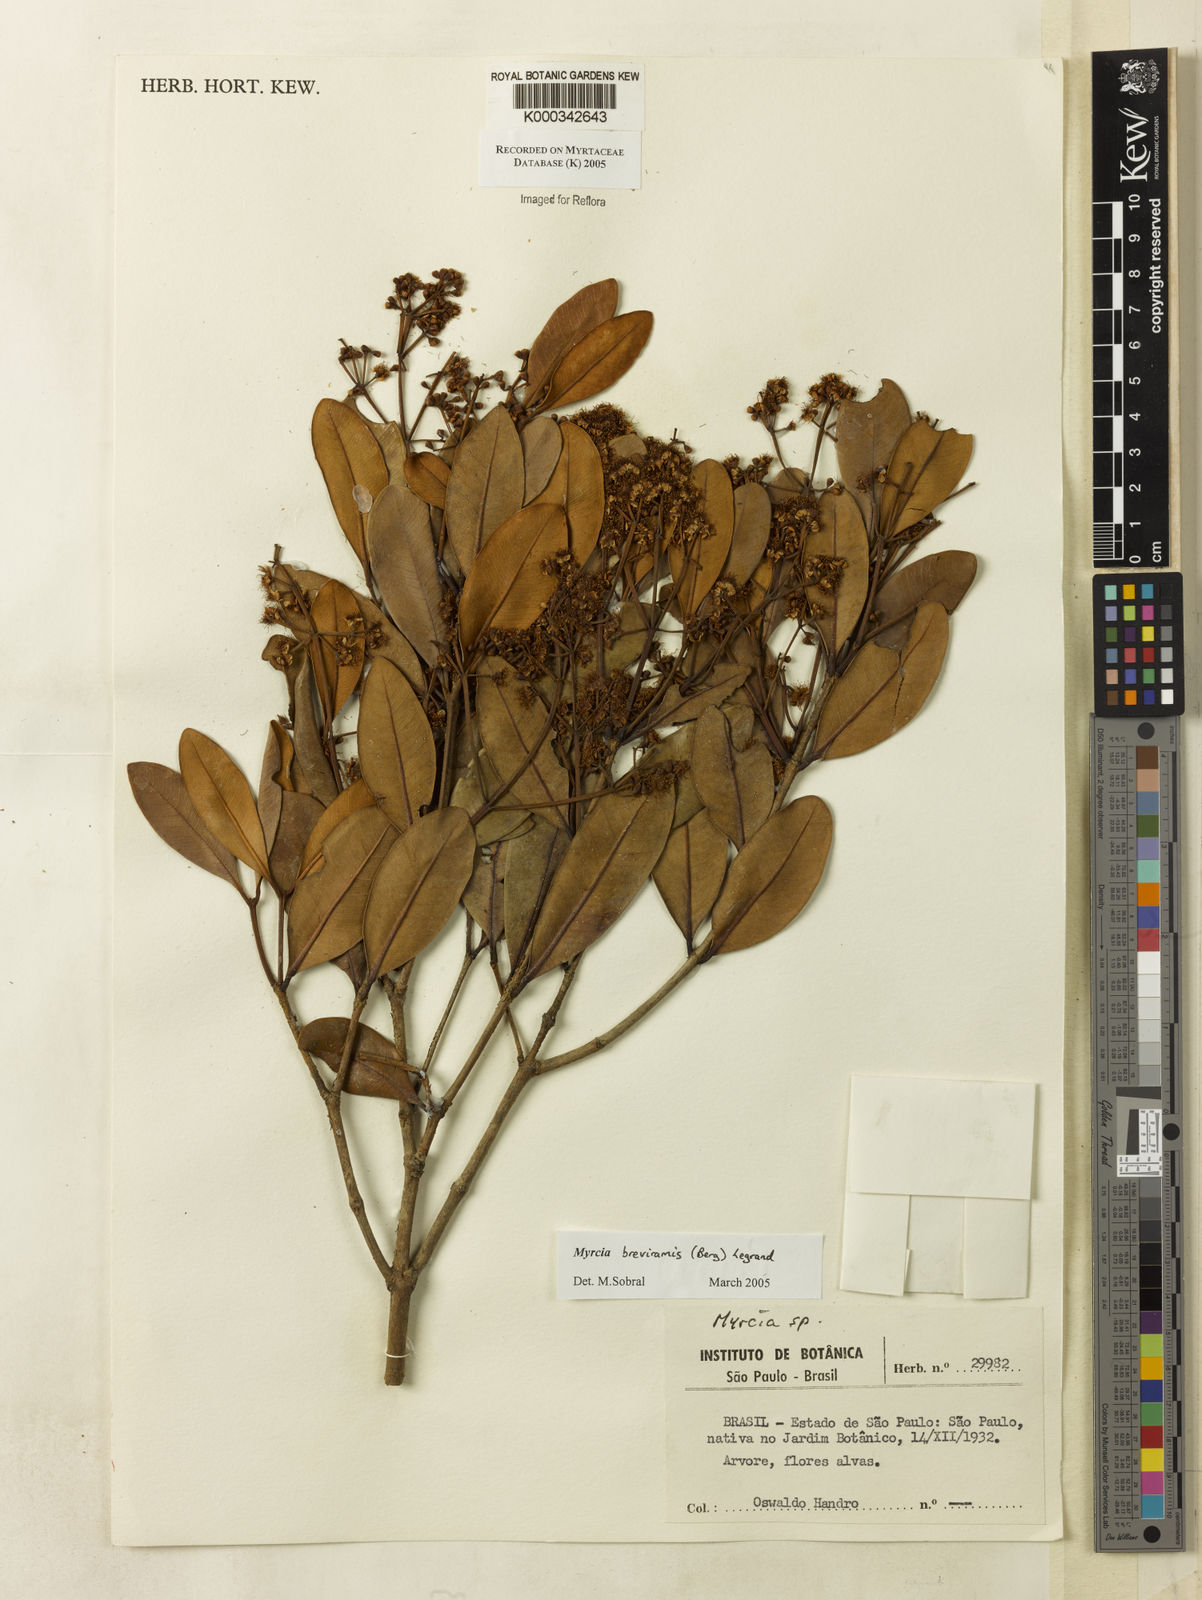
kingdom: Plantae
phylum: Tracheophyta
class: Magnoliopsida
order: Myrtales
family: Myrtaceae
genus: Myrcia
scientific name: Myrcia pulchra
